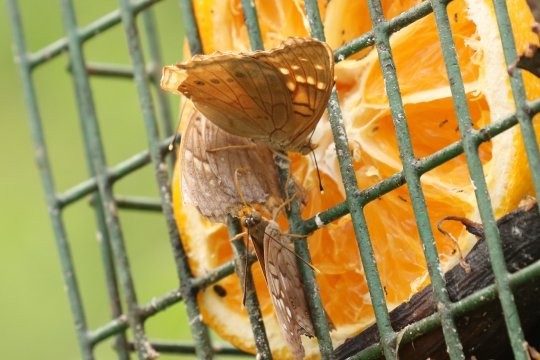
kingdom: Animalia
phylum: Arthropoda
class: Insecta
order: Lepidoptera
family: Nymphalidae
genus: Asterocampa
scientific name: Asterocampa clyton
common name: Tawny Emperor
